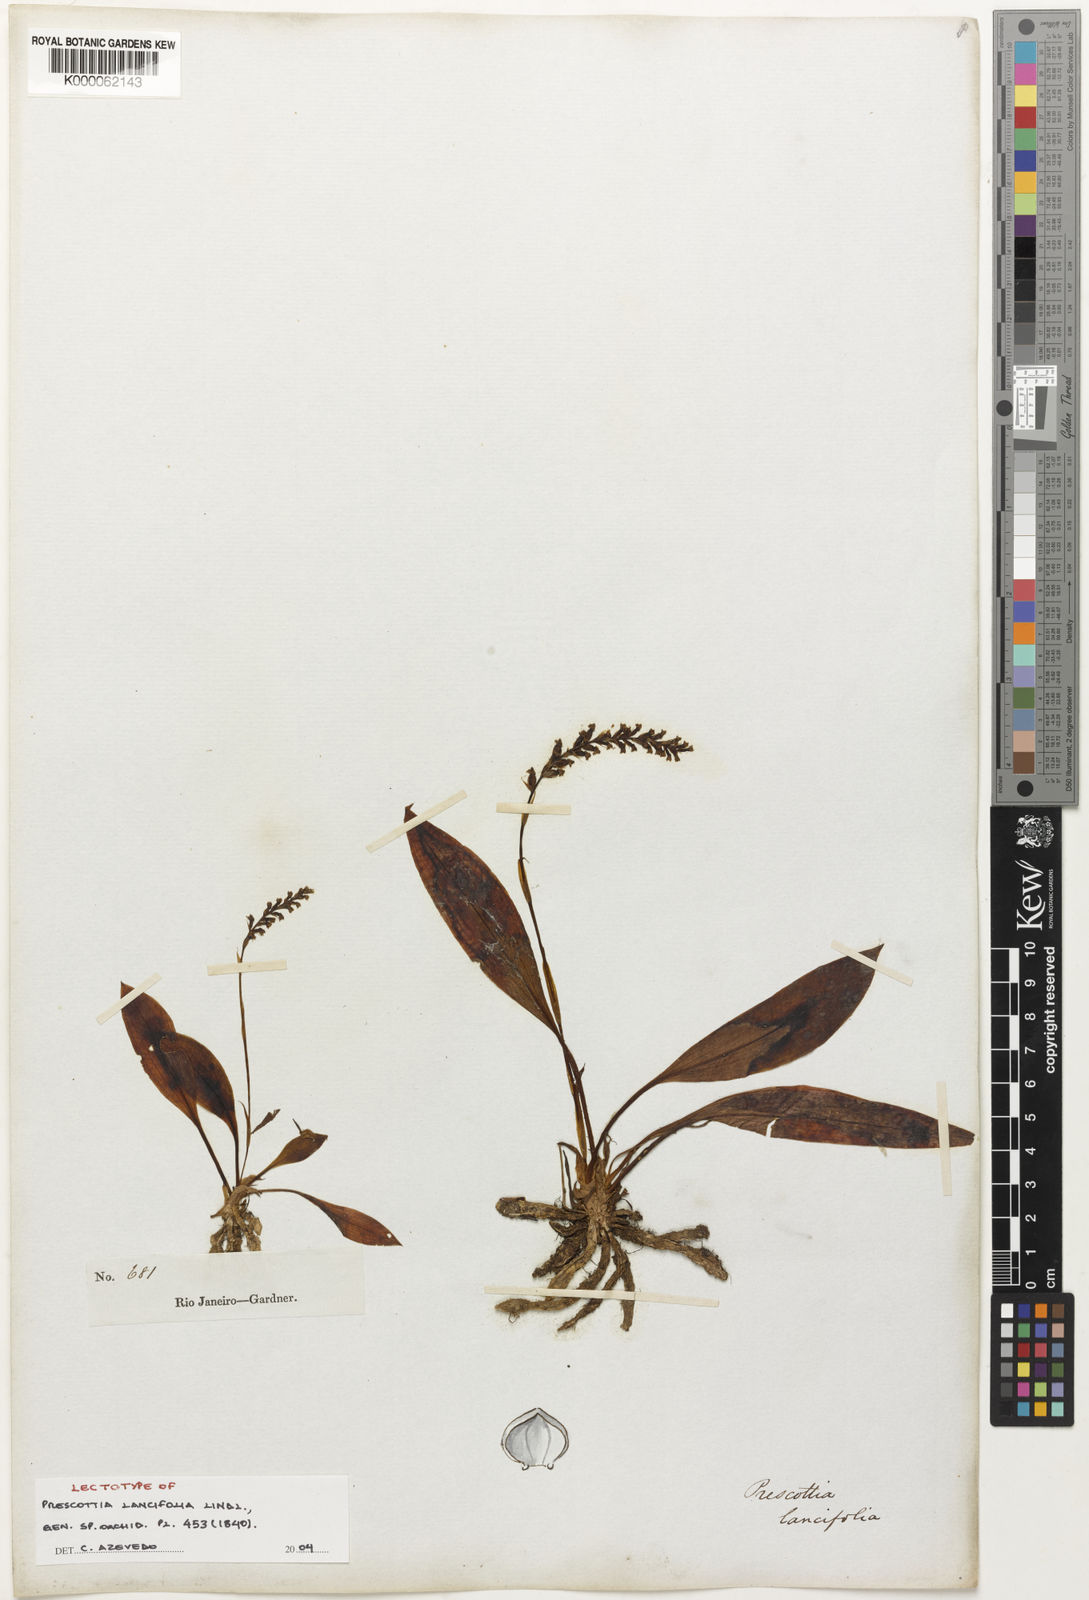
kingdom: Plantae
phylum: Tracheophyta
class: Liliopsida
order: Asparagales
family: Orchidaceae
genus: Prescottia
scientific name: Prescottia lancifolia
